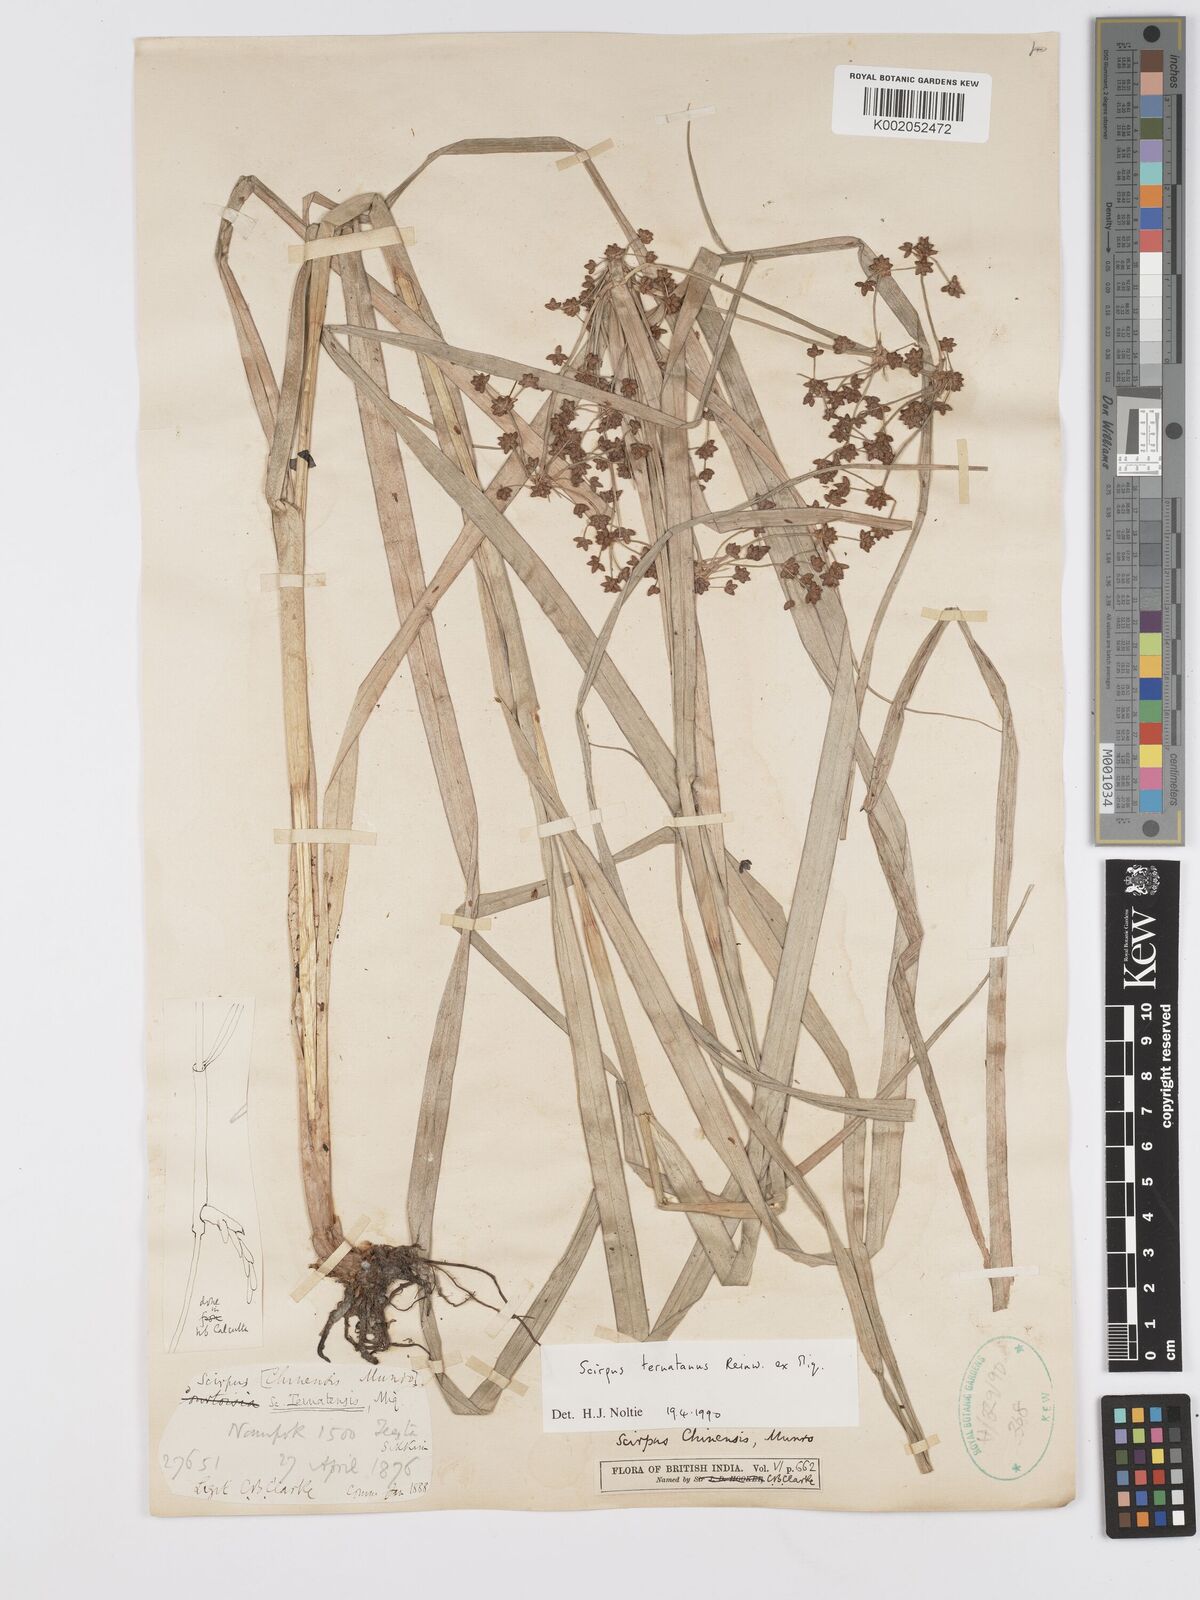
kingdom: Plantae
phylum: Tracheophyta
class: Liliopsida
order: Poales
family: Cyperaceae
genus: Scirpus
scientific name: Scirpus ternatanus
